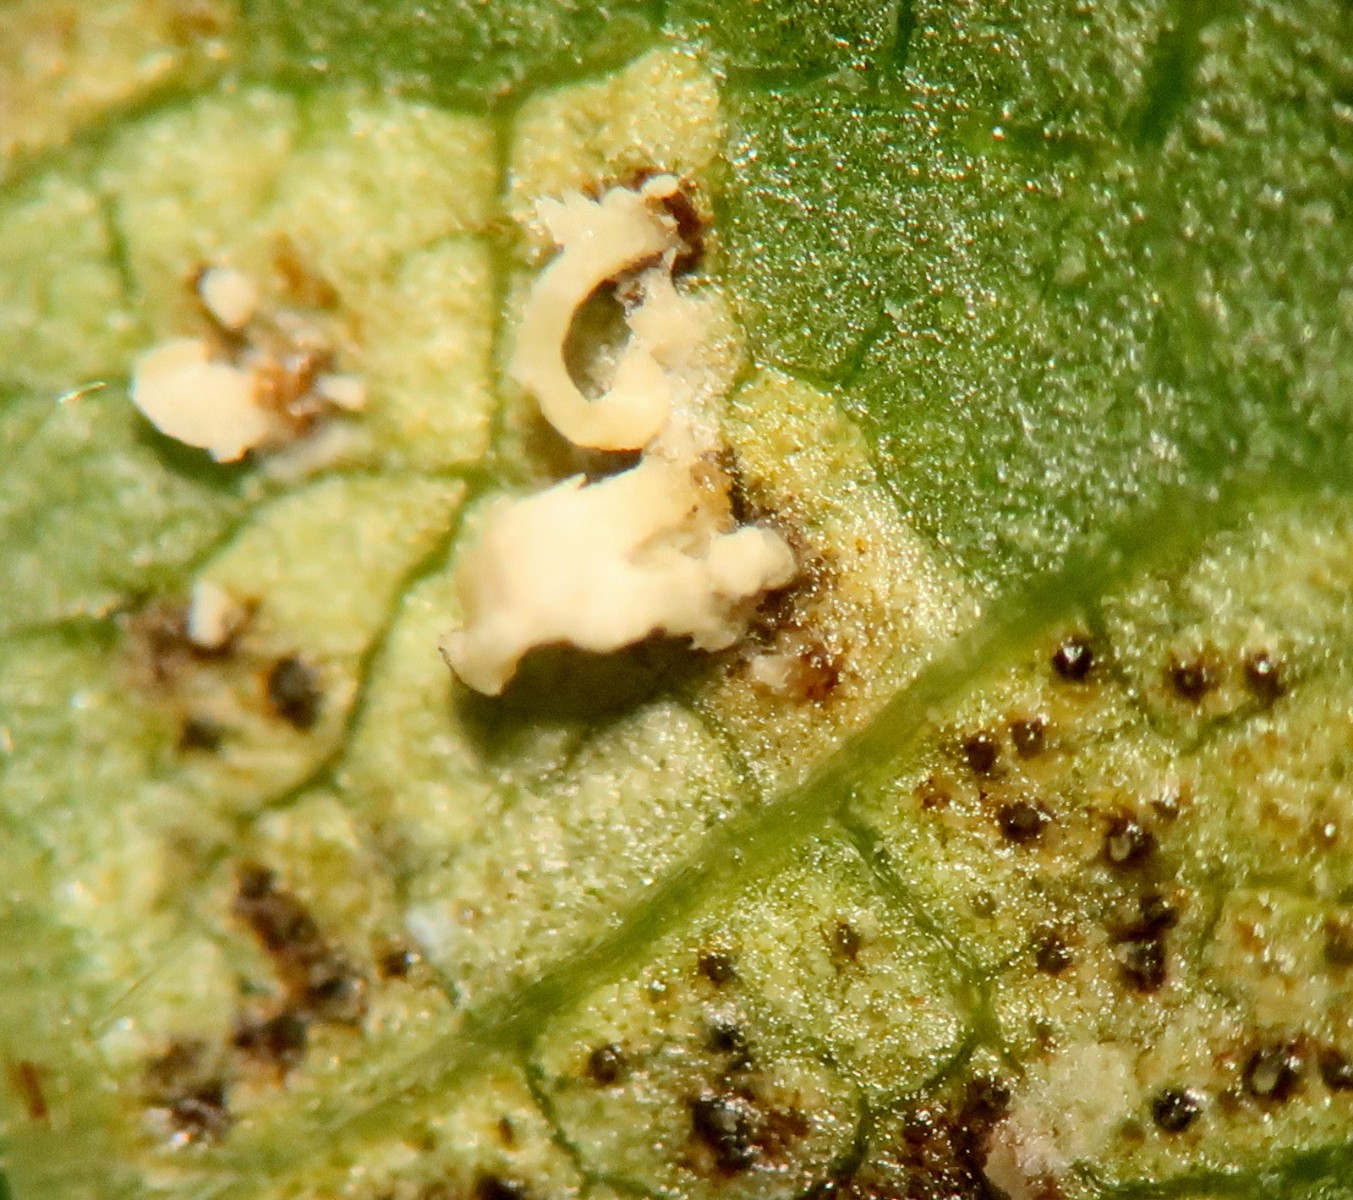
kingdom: Fungi
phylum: Ascomycota
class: Dothideomycetes
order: Mycosphaerellales
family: Mycosphaerellaceae
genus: Mycosphaerella
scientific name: Mycosphaerella ulmi
